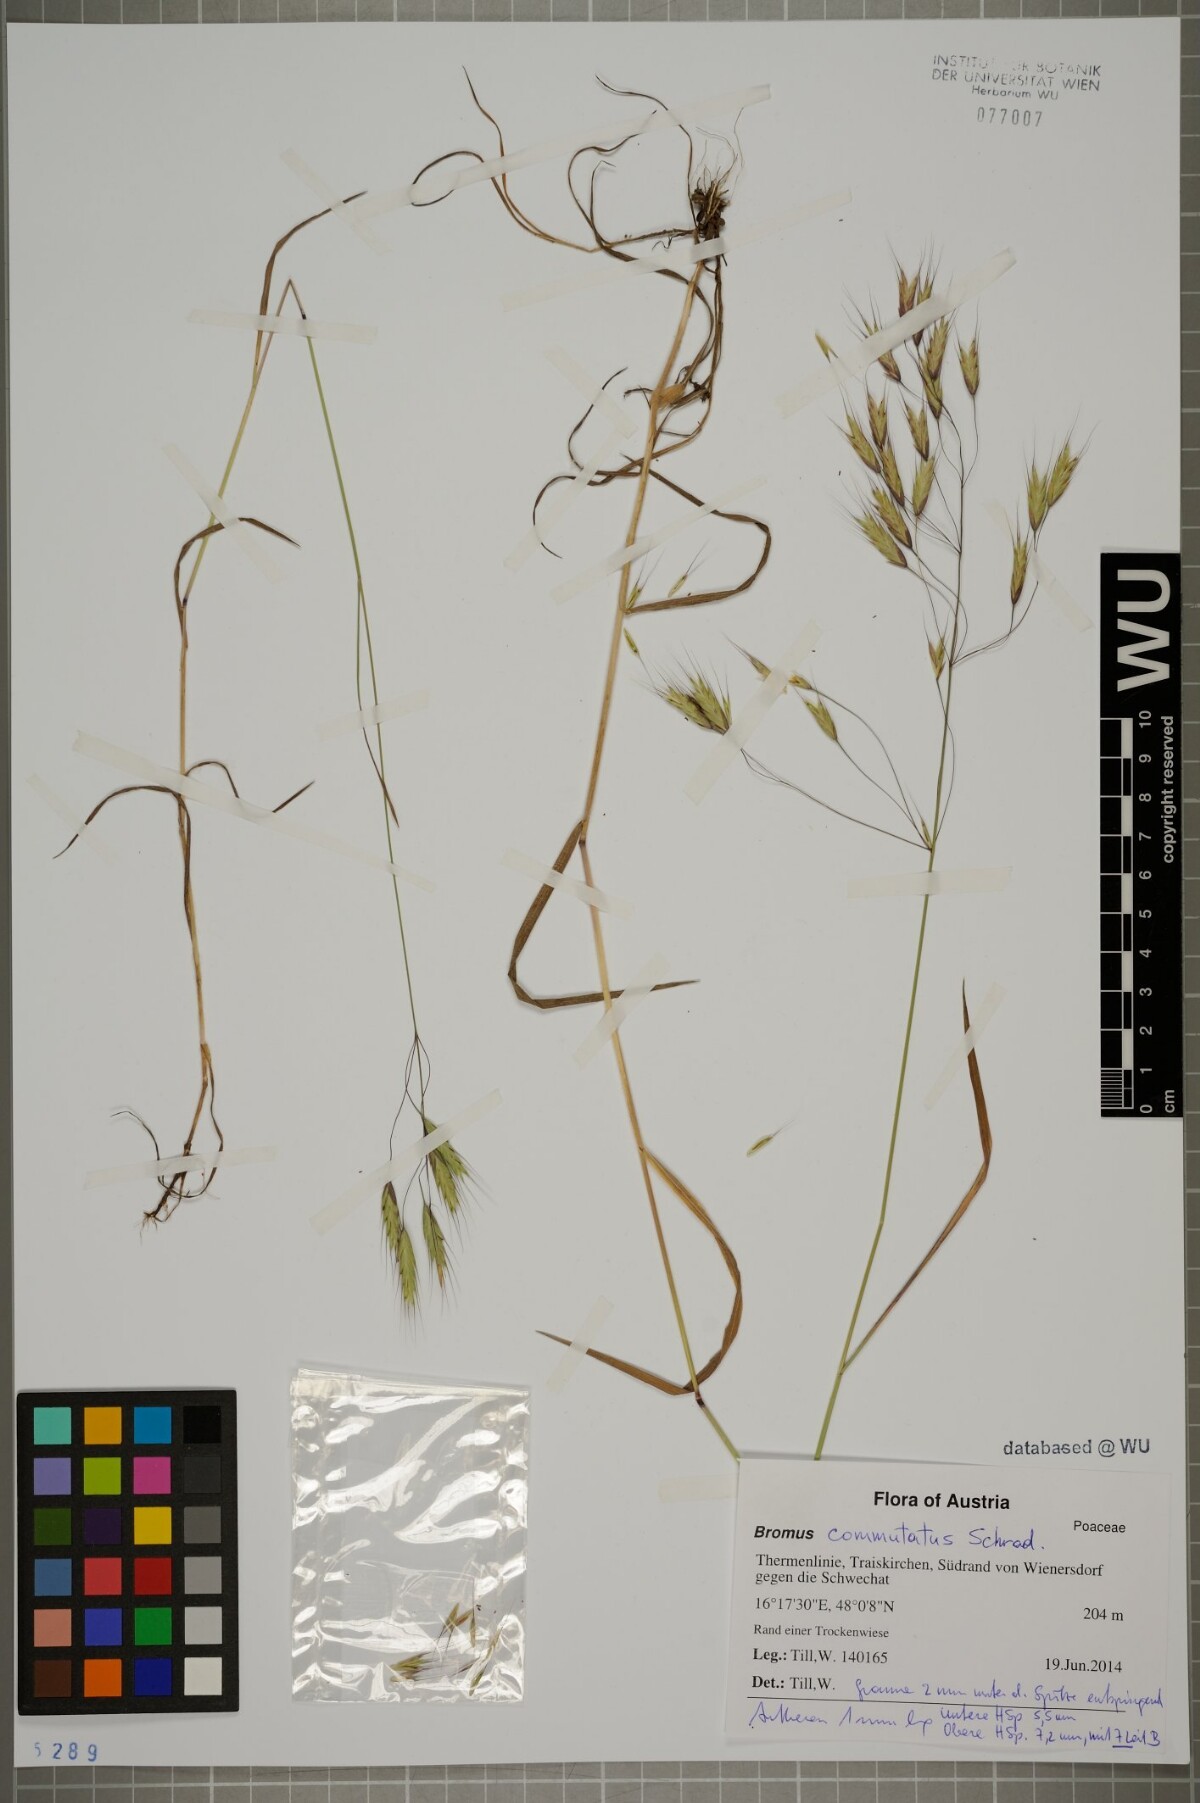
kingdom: Plantae
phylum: Tracheophyta
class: Liliopsida
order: Poales
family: Poaceae
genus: Bromus
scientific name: Bromus japonicus
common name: Japanese brome
